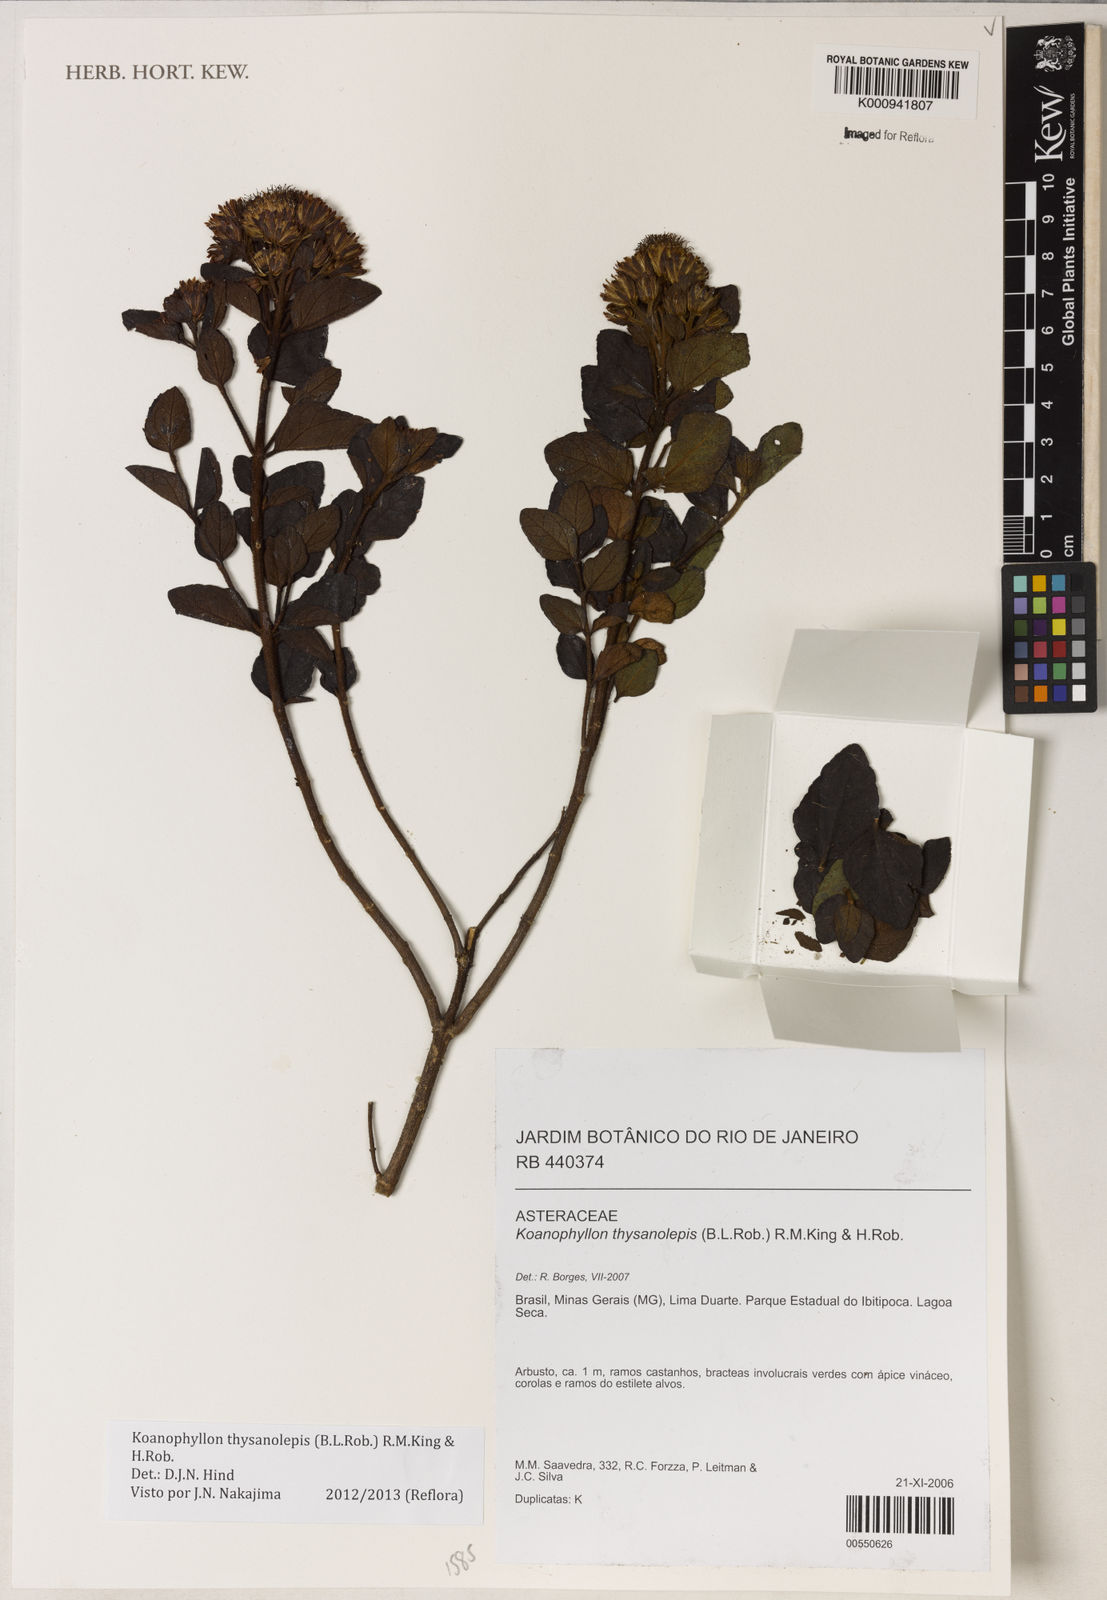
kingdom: Plantae
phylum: Tracheophyta
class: Magnoliopsida
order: Asterales
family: Asteraceae
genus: Koanophyllon
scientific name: Koanophyllon thysanolepis
